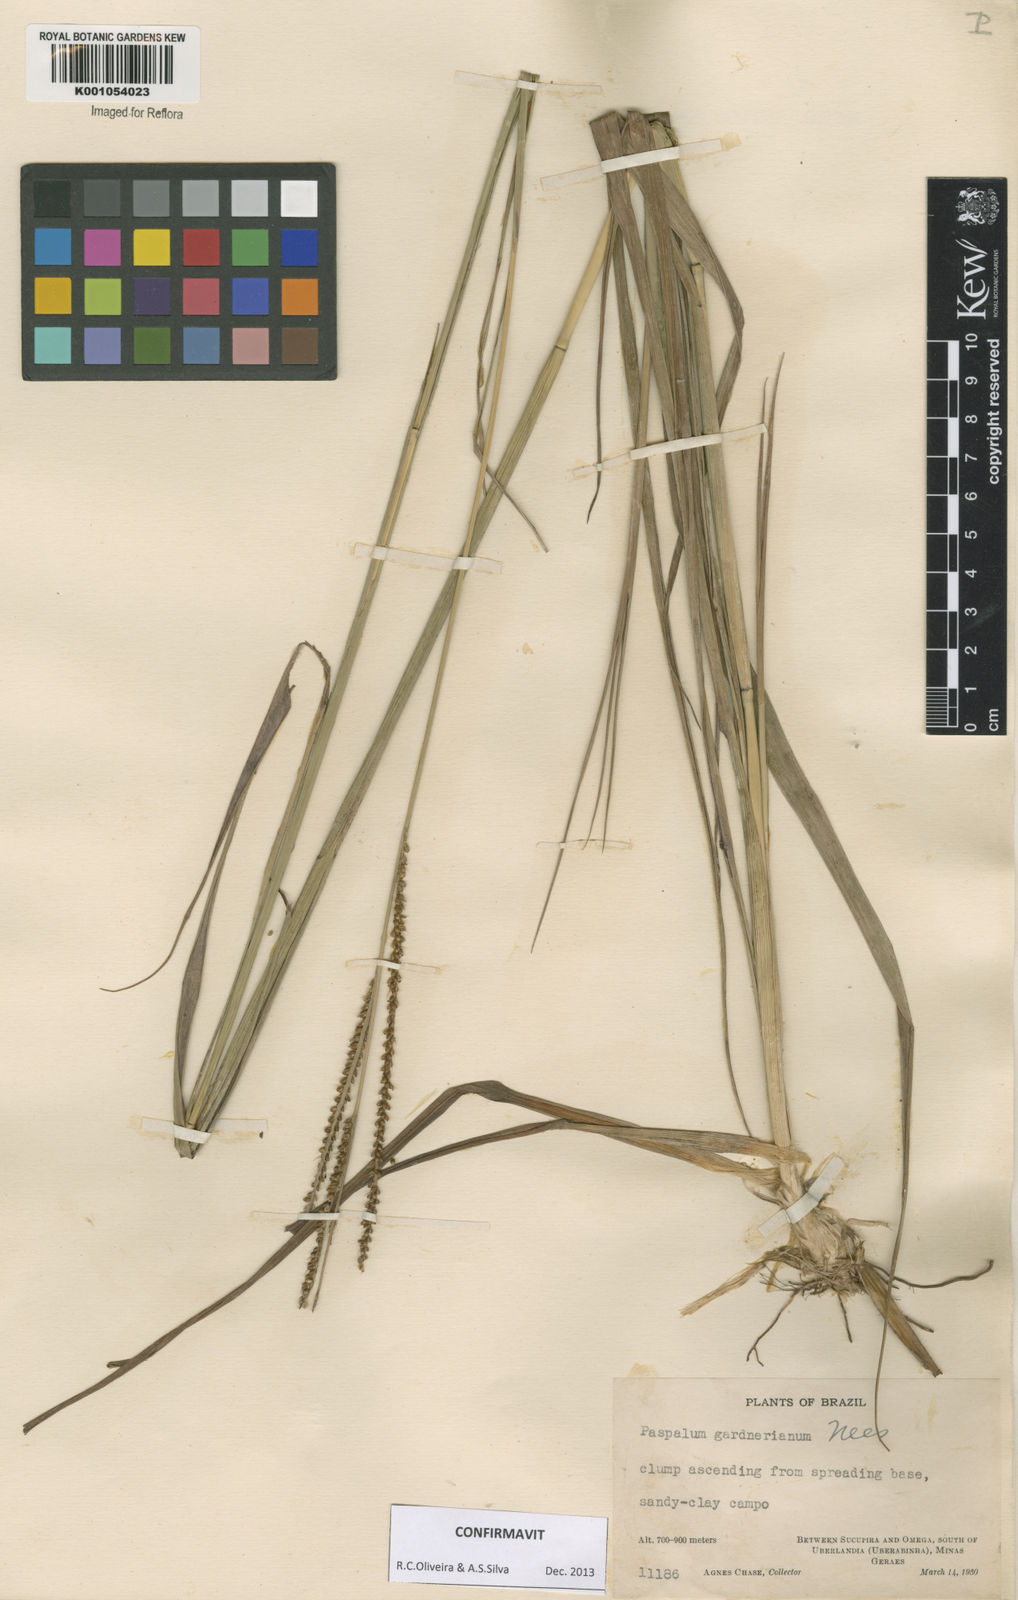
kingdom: Plantae
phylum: Tracheophyta
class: Liliopsida
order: Poales
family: Poaceae
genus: Paspalum
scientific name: Paspalum gardnerianum
